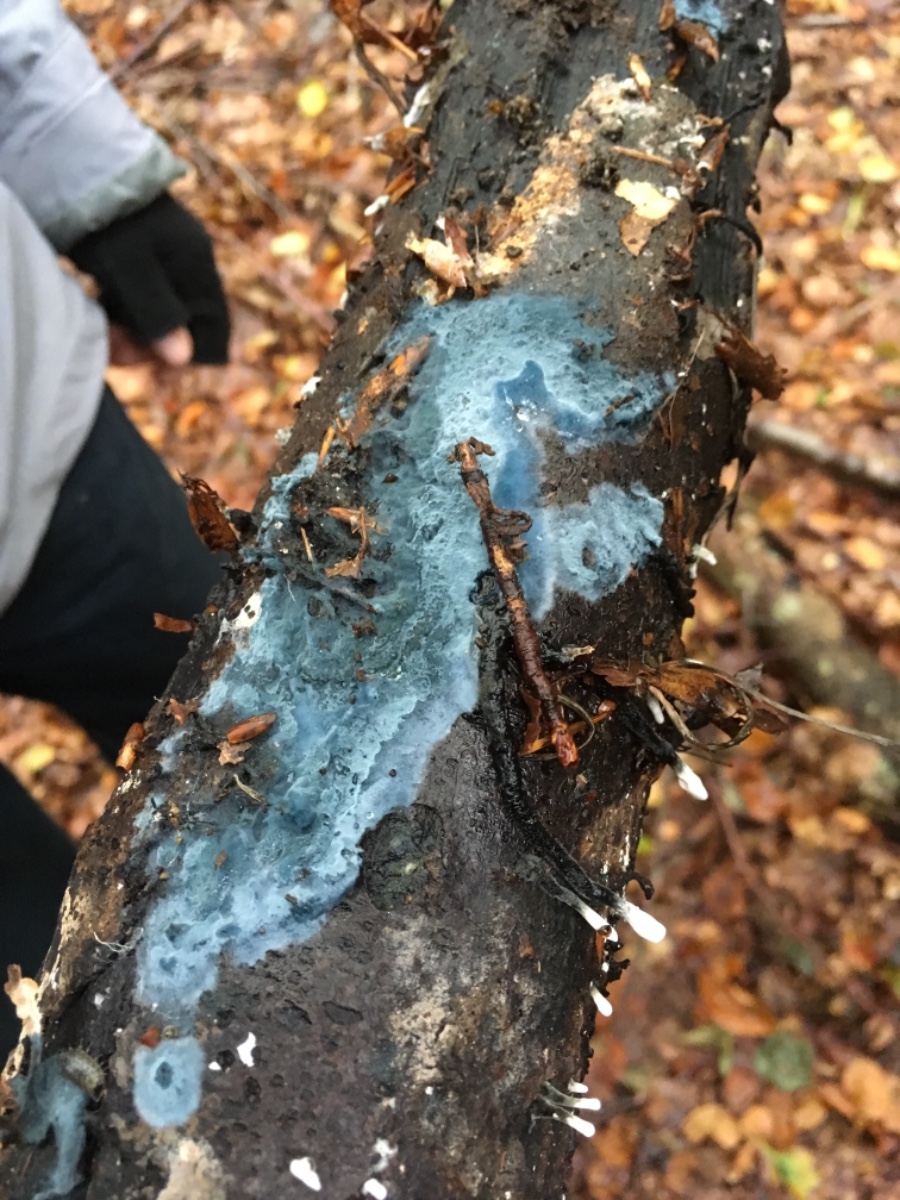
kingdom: Fungi
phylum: Basidiomycota
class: Agaricomycetes
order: Atheliales
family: Atheliaceae
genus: Byssocorticium
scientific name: Byssocorticium
